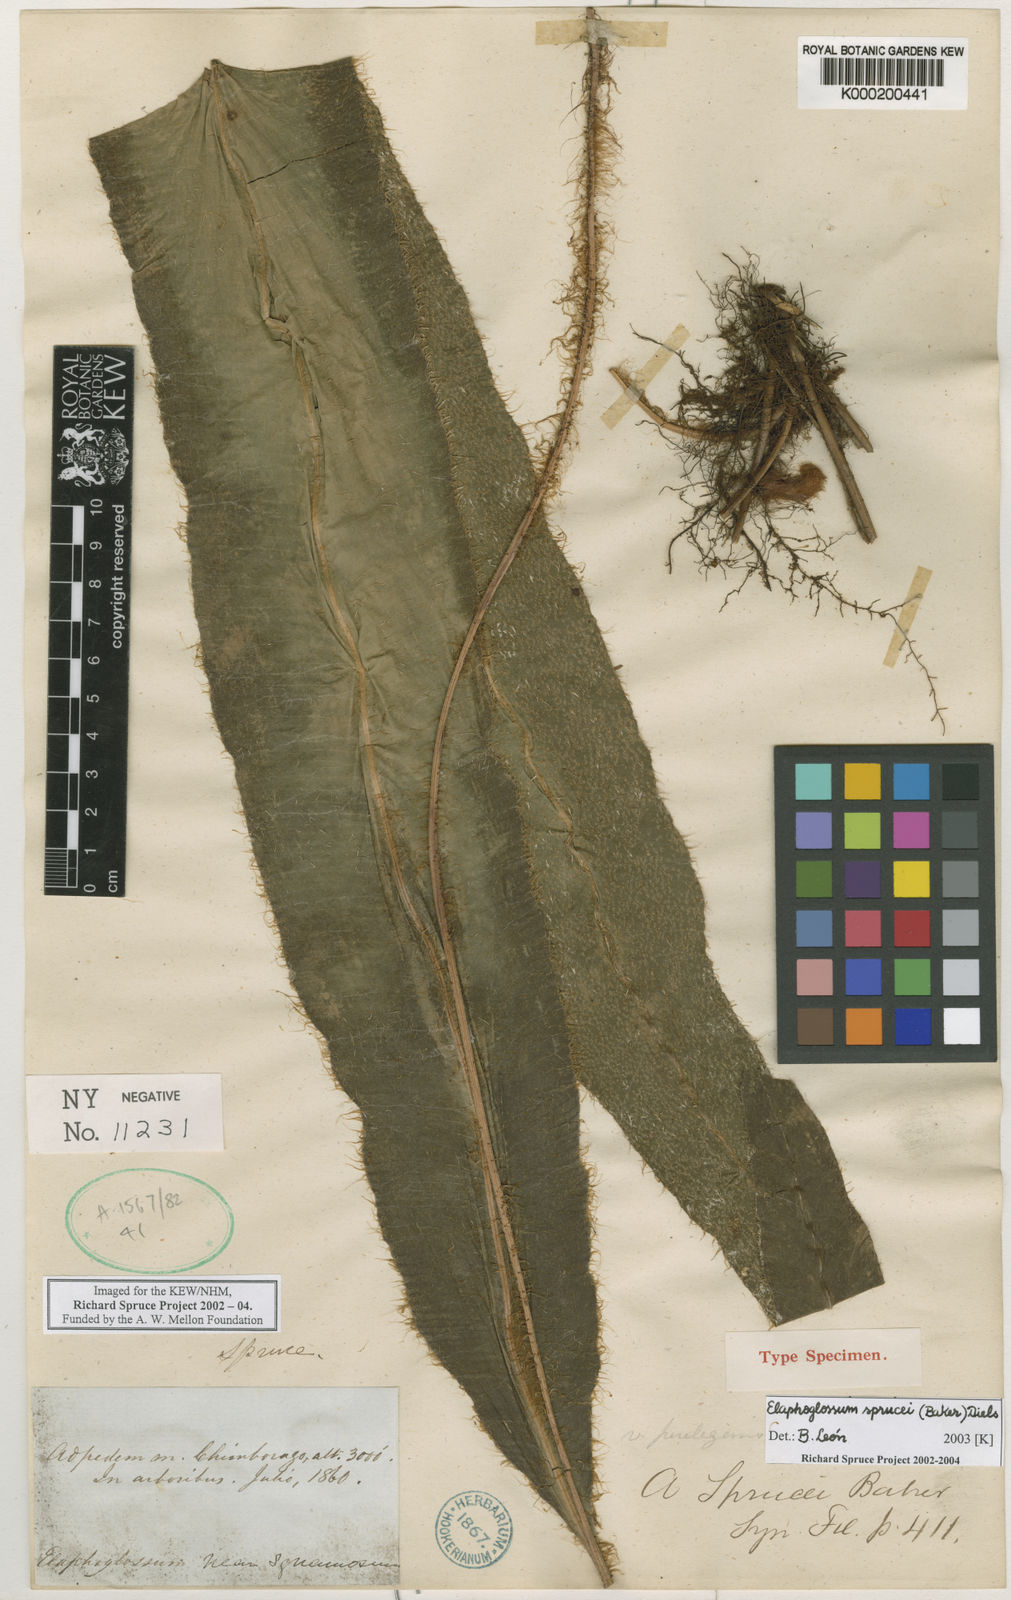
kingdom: Plantae
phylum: Tracheophyta
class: Polypodiopsida
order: Polypodiales
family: Dryopteridaceae
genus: Elaphoglossum
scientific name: Elaphoglossum sprucei
